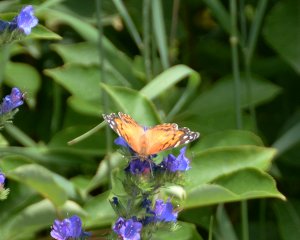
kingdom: Animalia
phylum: Arthropoda
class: Insecta
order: Lepidoptera
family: Nymphalidae
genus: Vanessa
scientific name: Vanessa virginiensis
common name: American Lady
